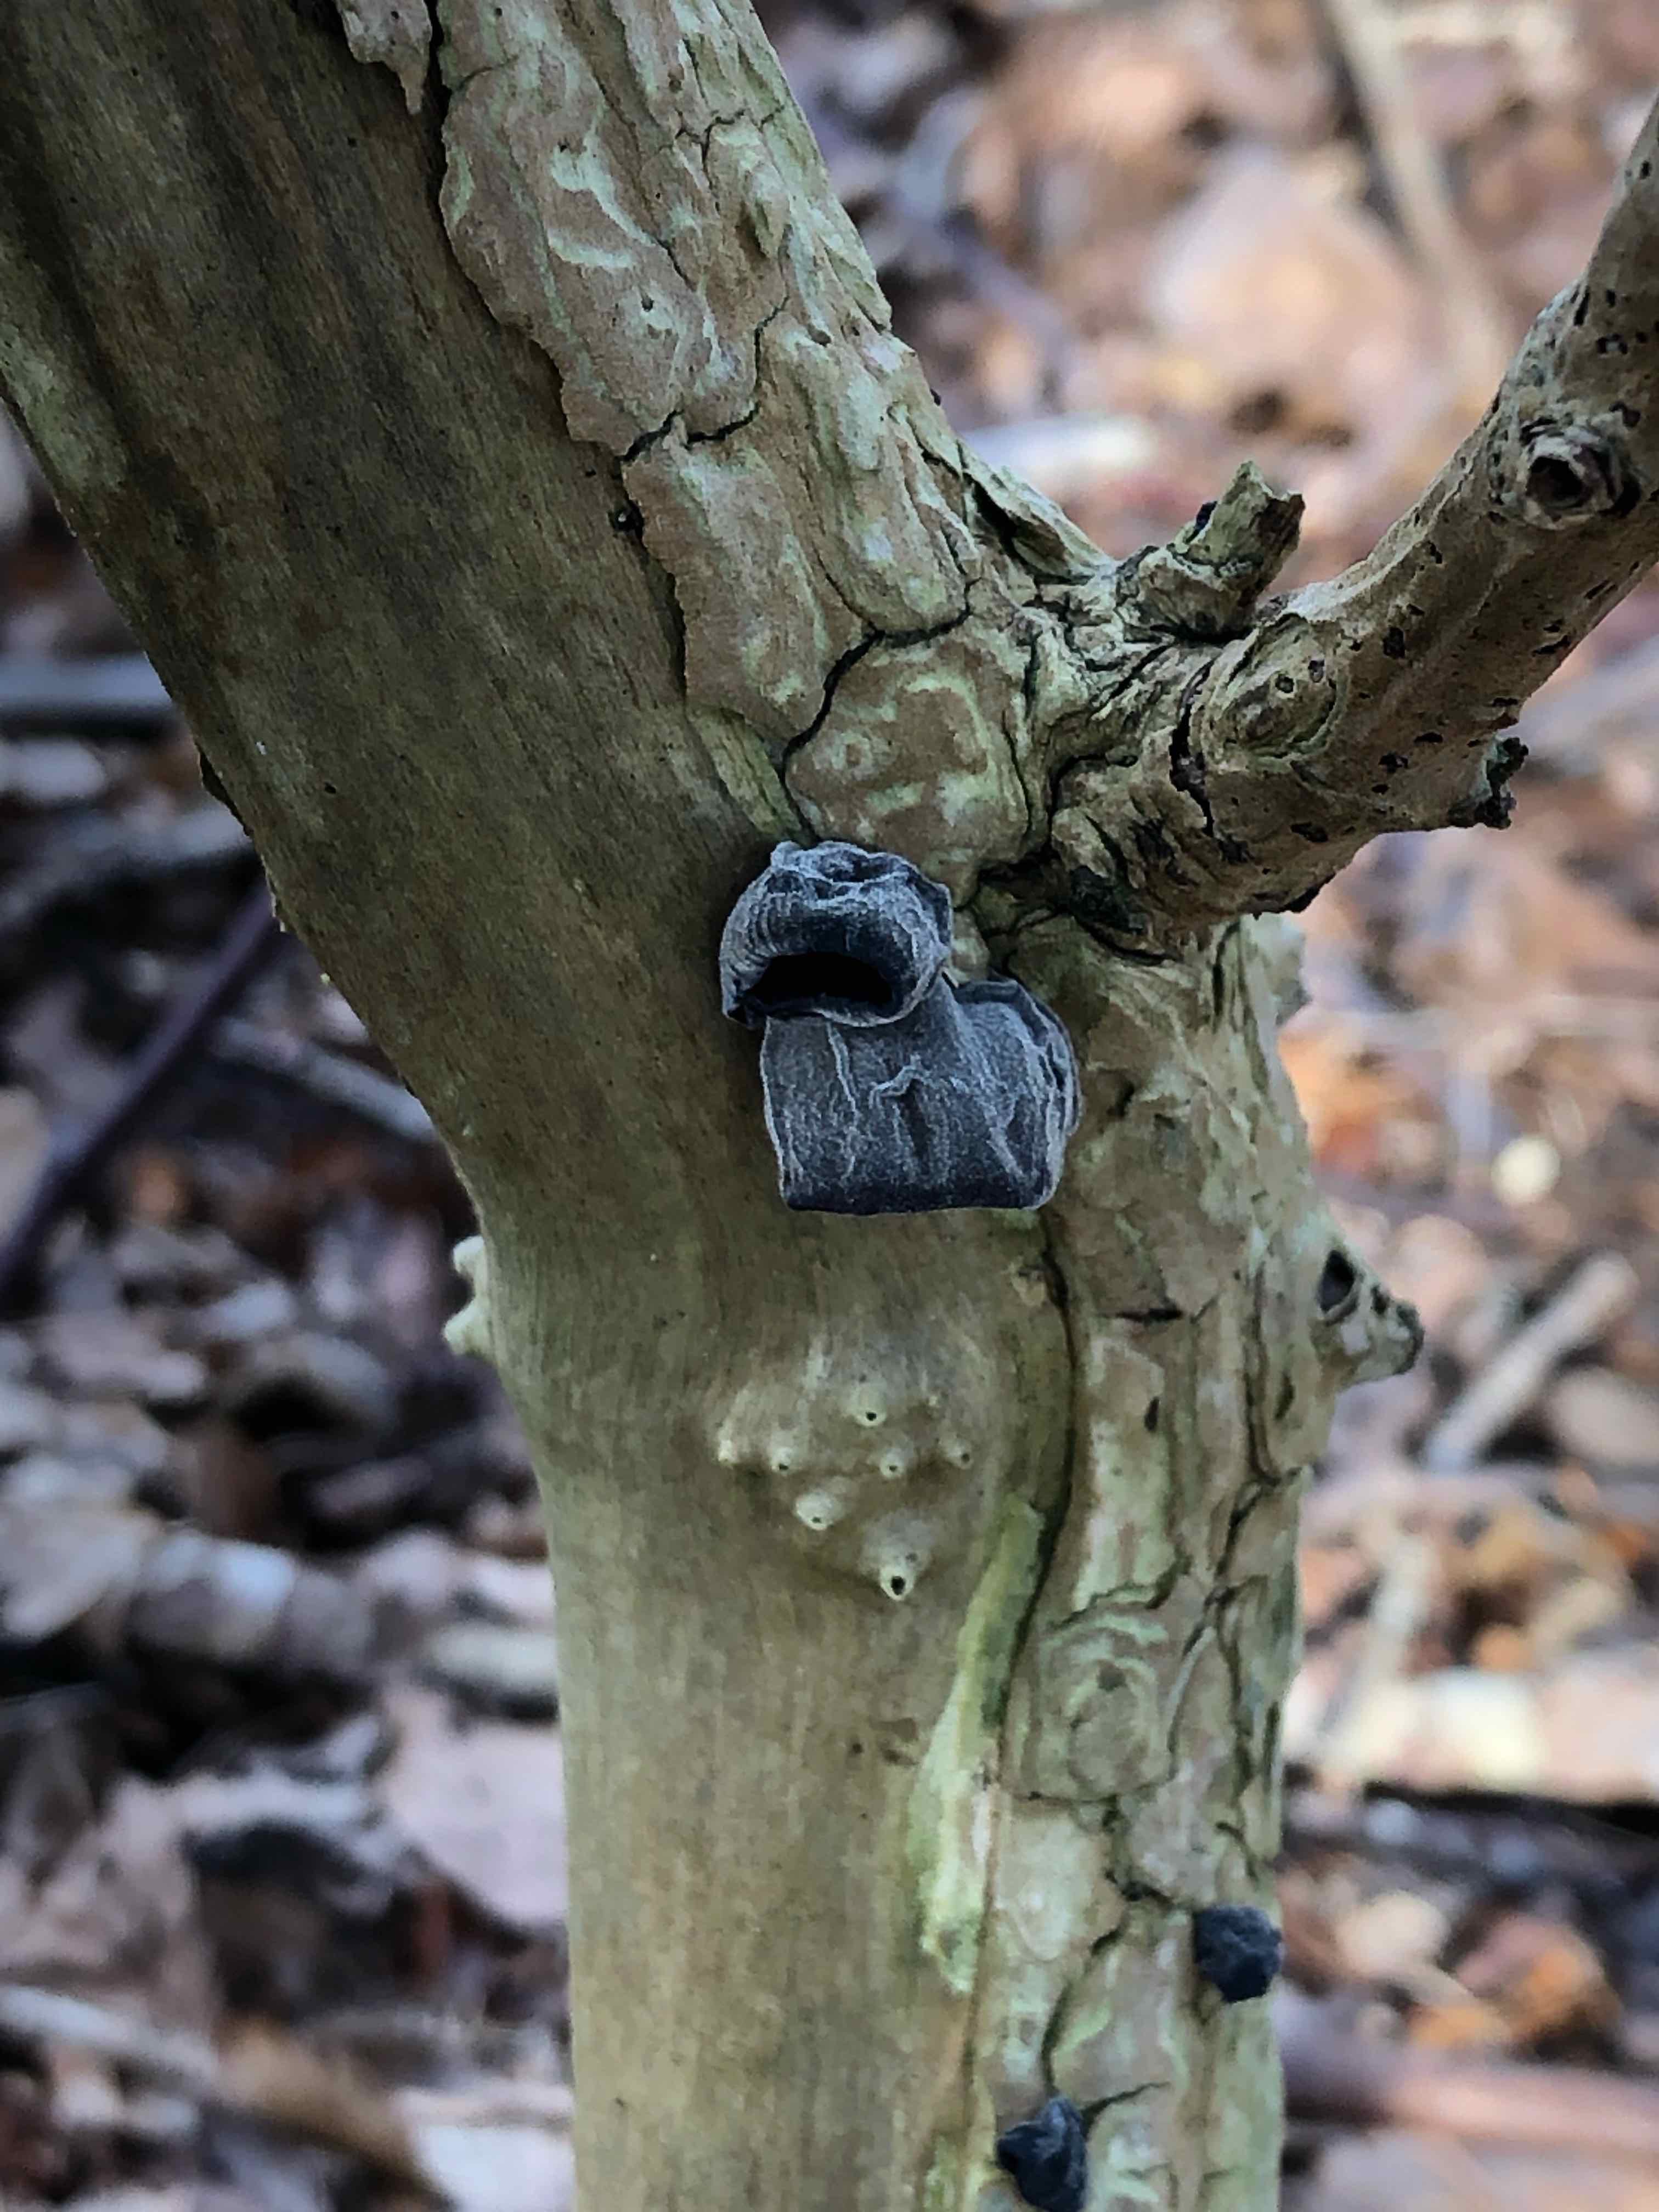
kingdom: Fungi
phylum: Basidiomycota
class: Agaricomycetes
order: Auriculariales
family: Auriculariaceae
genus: Auricularia
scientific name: Auricularia auricula-judae
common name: almindelig judasøre
